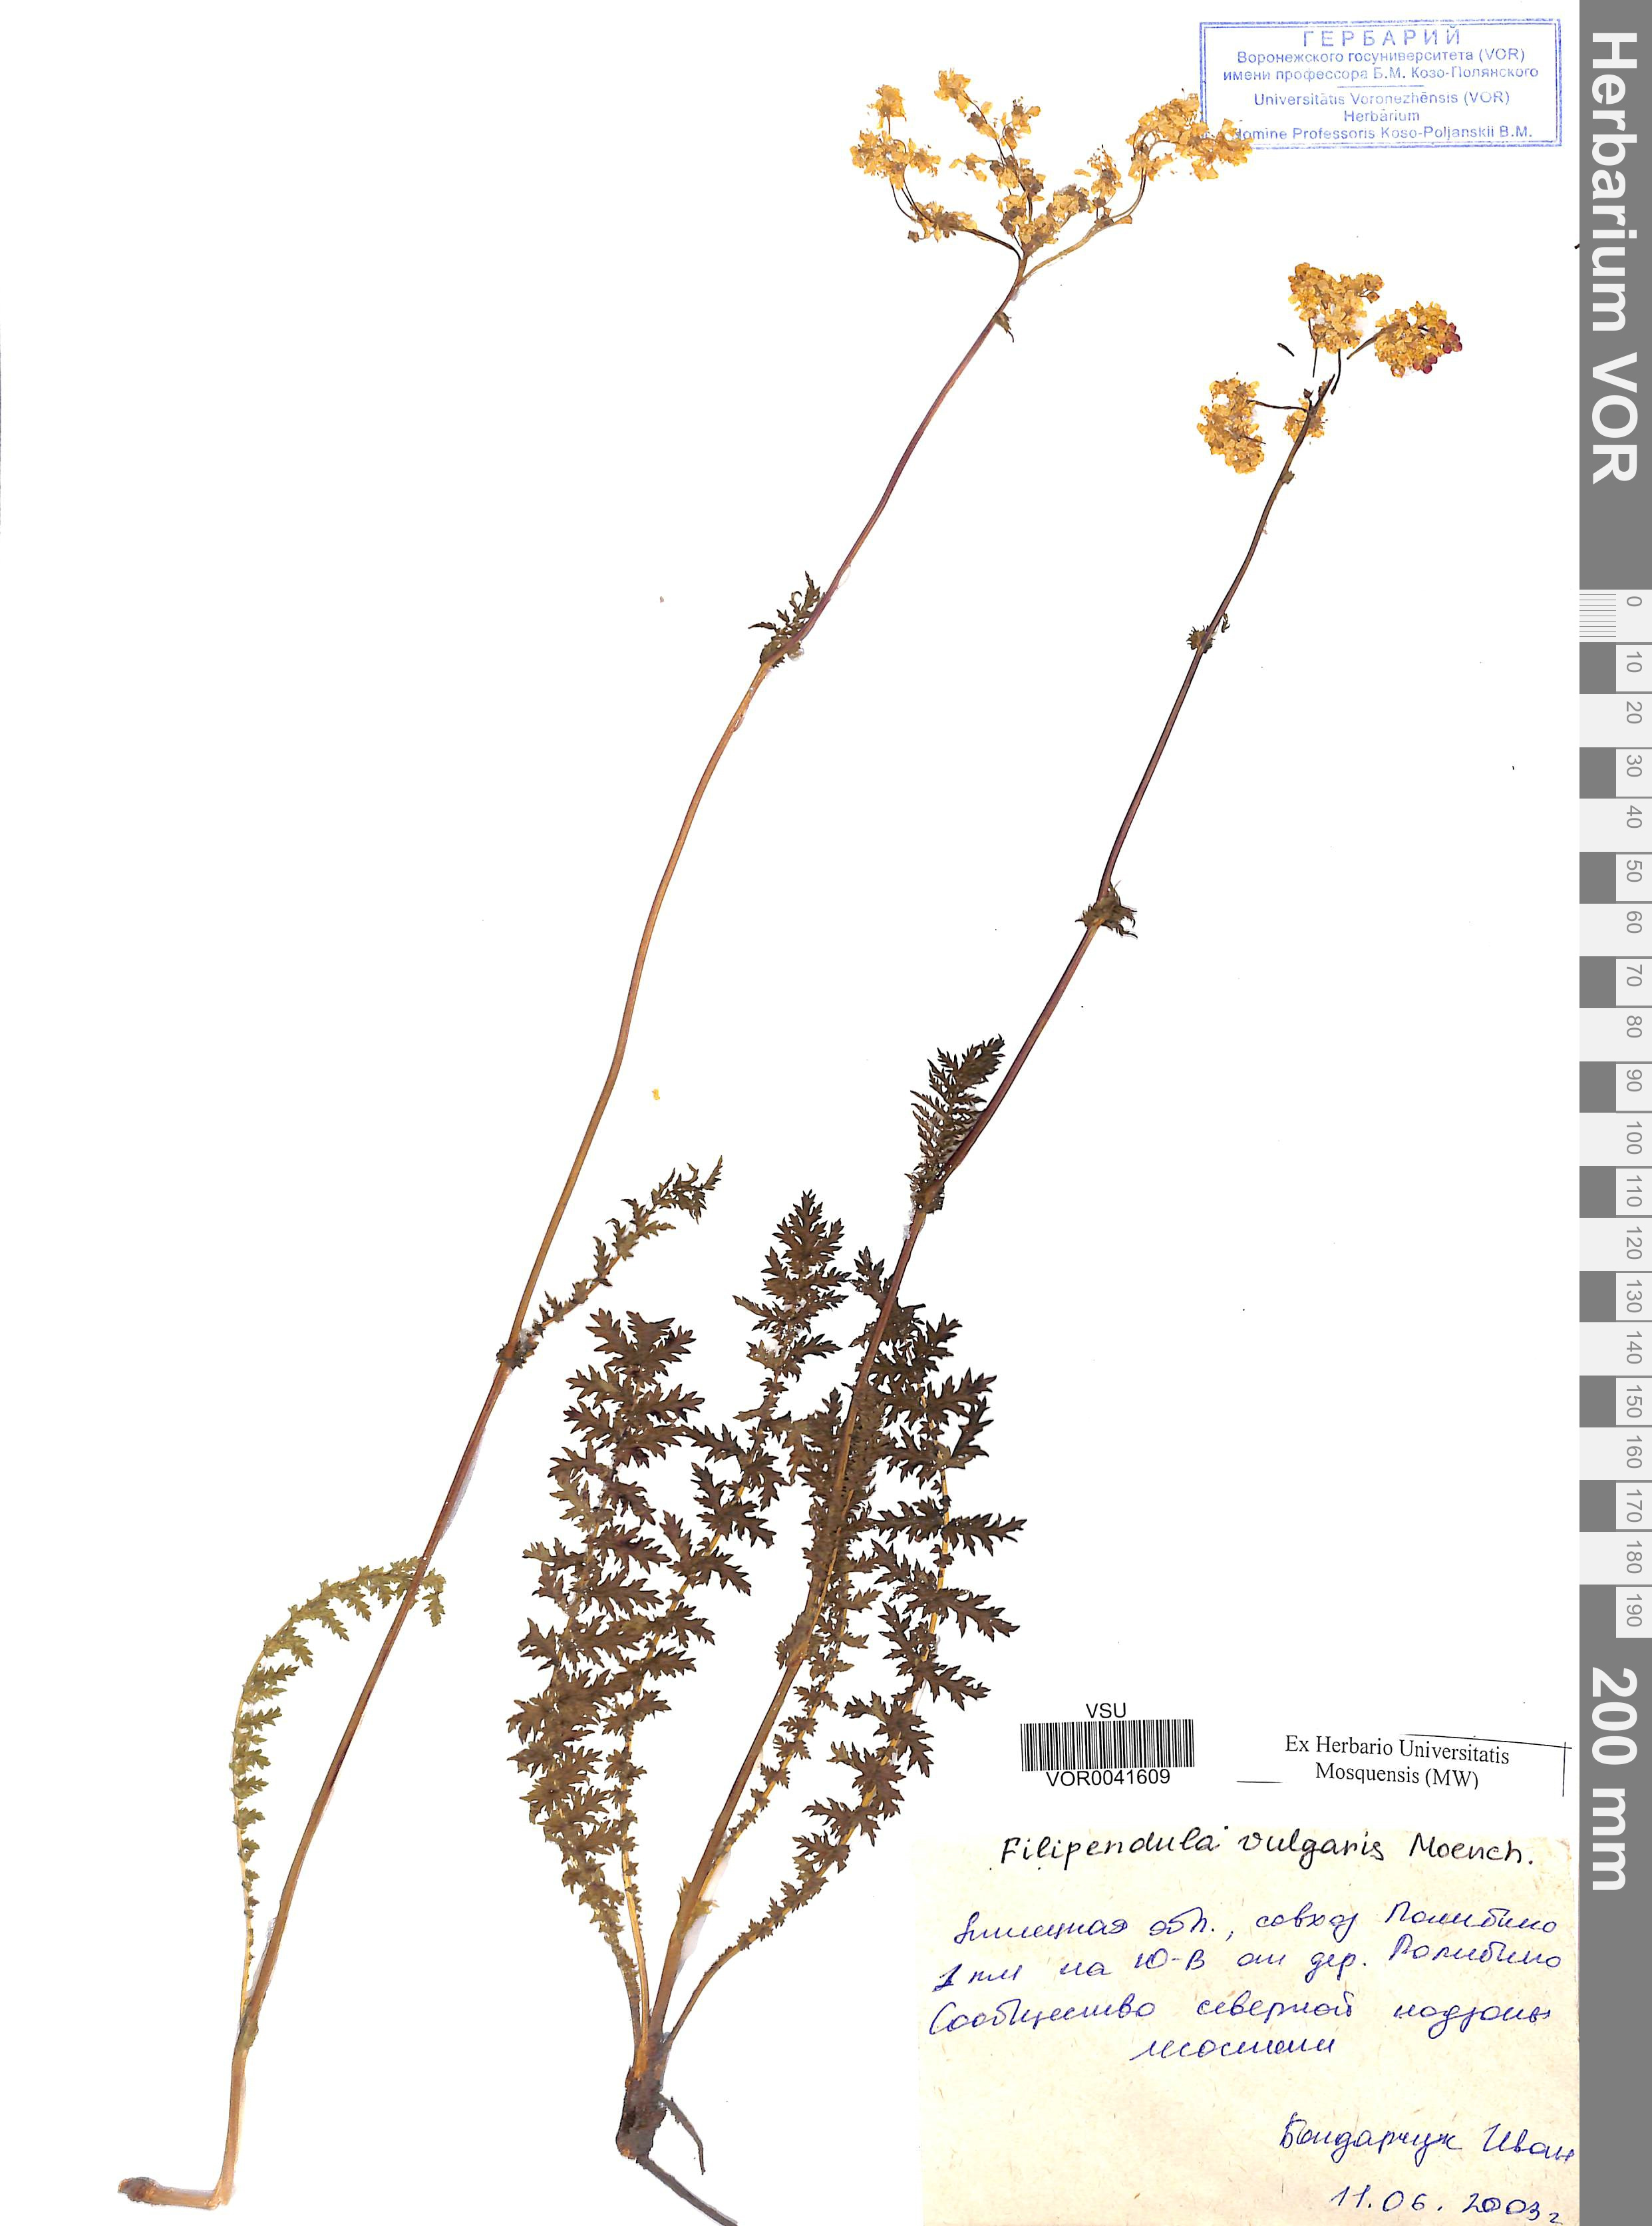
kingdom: Plantae
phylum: Tracheophyta
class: Magnoliopsida
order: Rosales
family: Rosaceae
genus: Filipendula
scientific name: Filipendula vulgaris
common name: Dropwort
